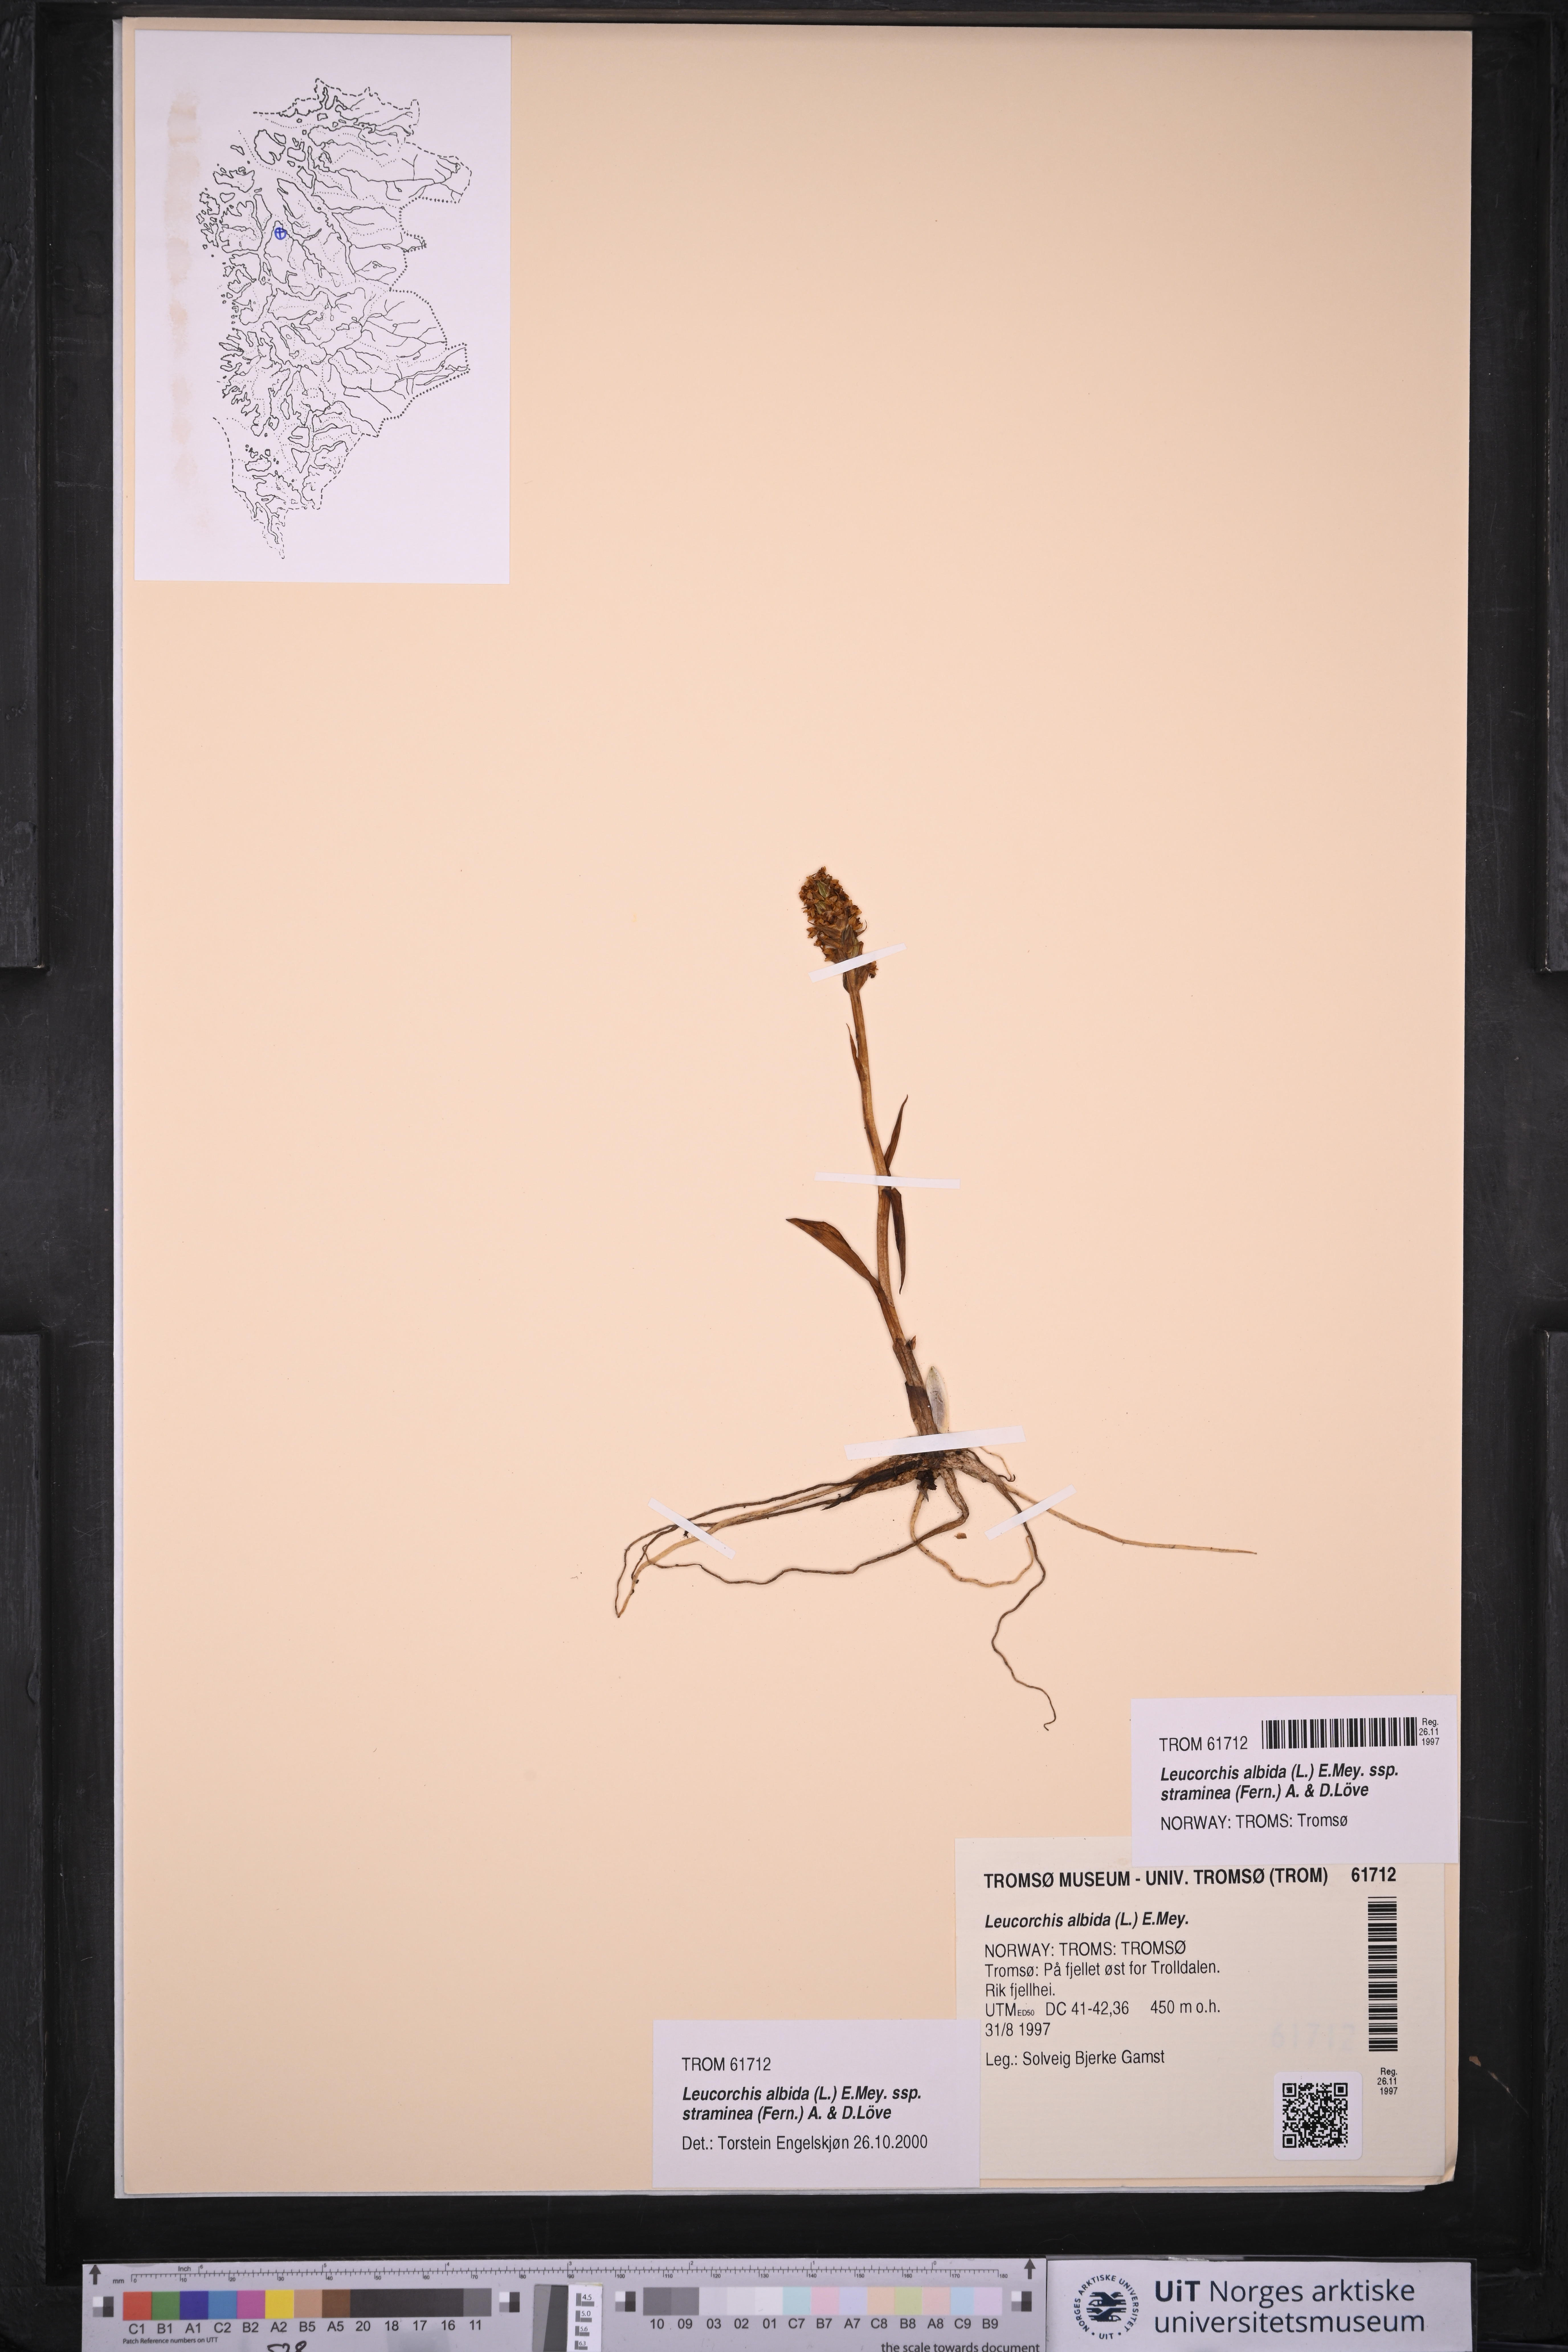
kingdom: Plantae
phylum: Tracheophyta
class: Liliopsida
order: Asparagales
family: Orchidaceae
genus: Pseudorchis
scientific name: Pseudorchis straminea
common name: Vanilla-scented bog orchid
